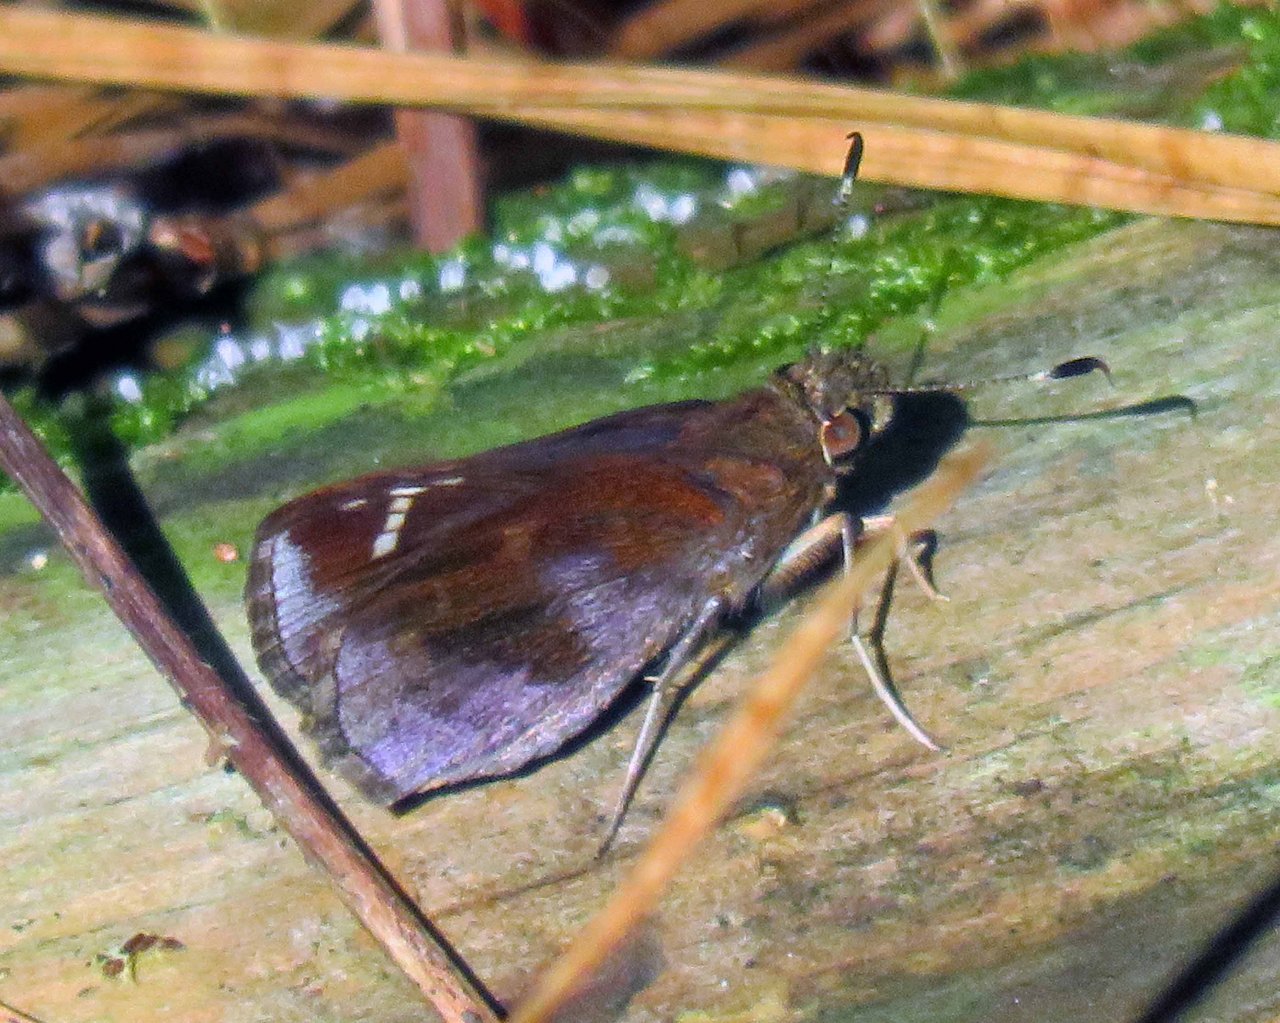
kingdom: Animalia
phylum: Arthropoda
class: Insecta
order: Lepidoptera
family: Hesperiidae
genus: Lerema
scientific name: Lerema accius
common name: Clouded Skipper
